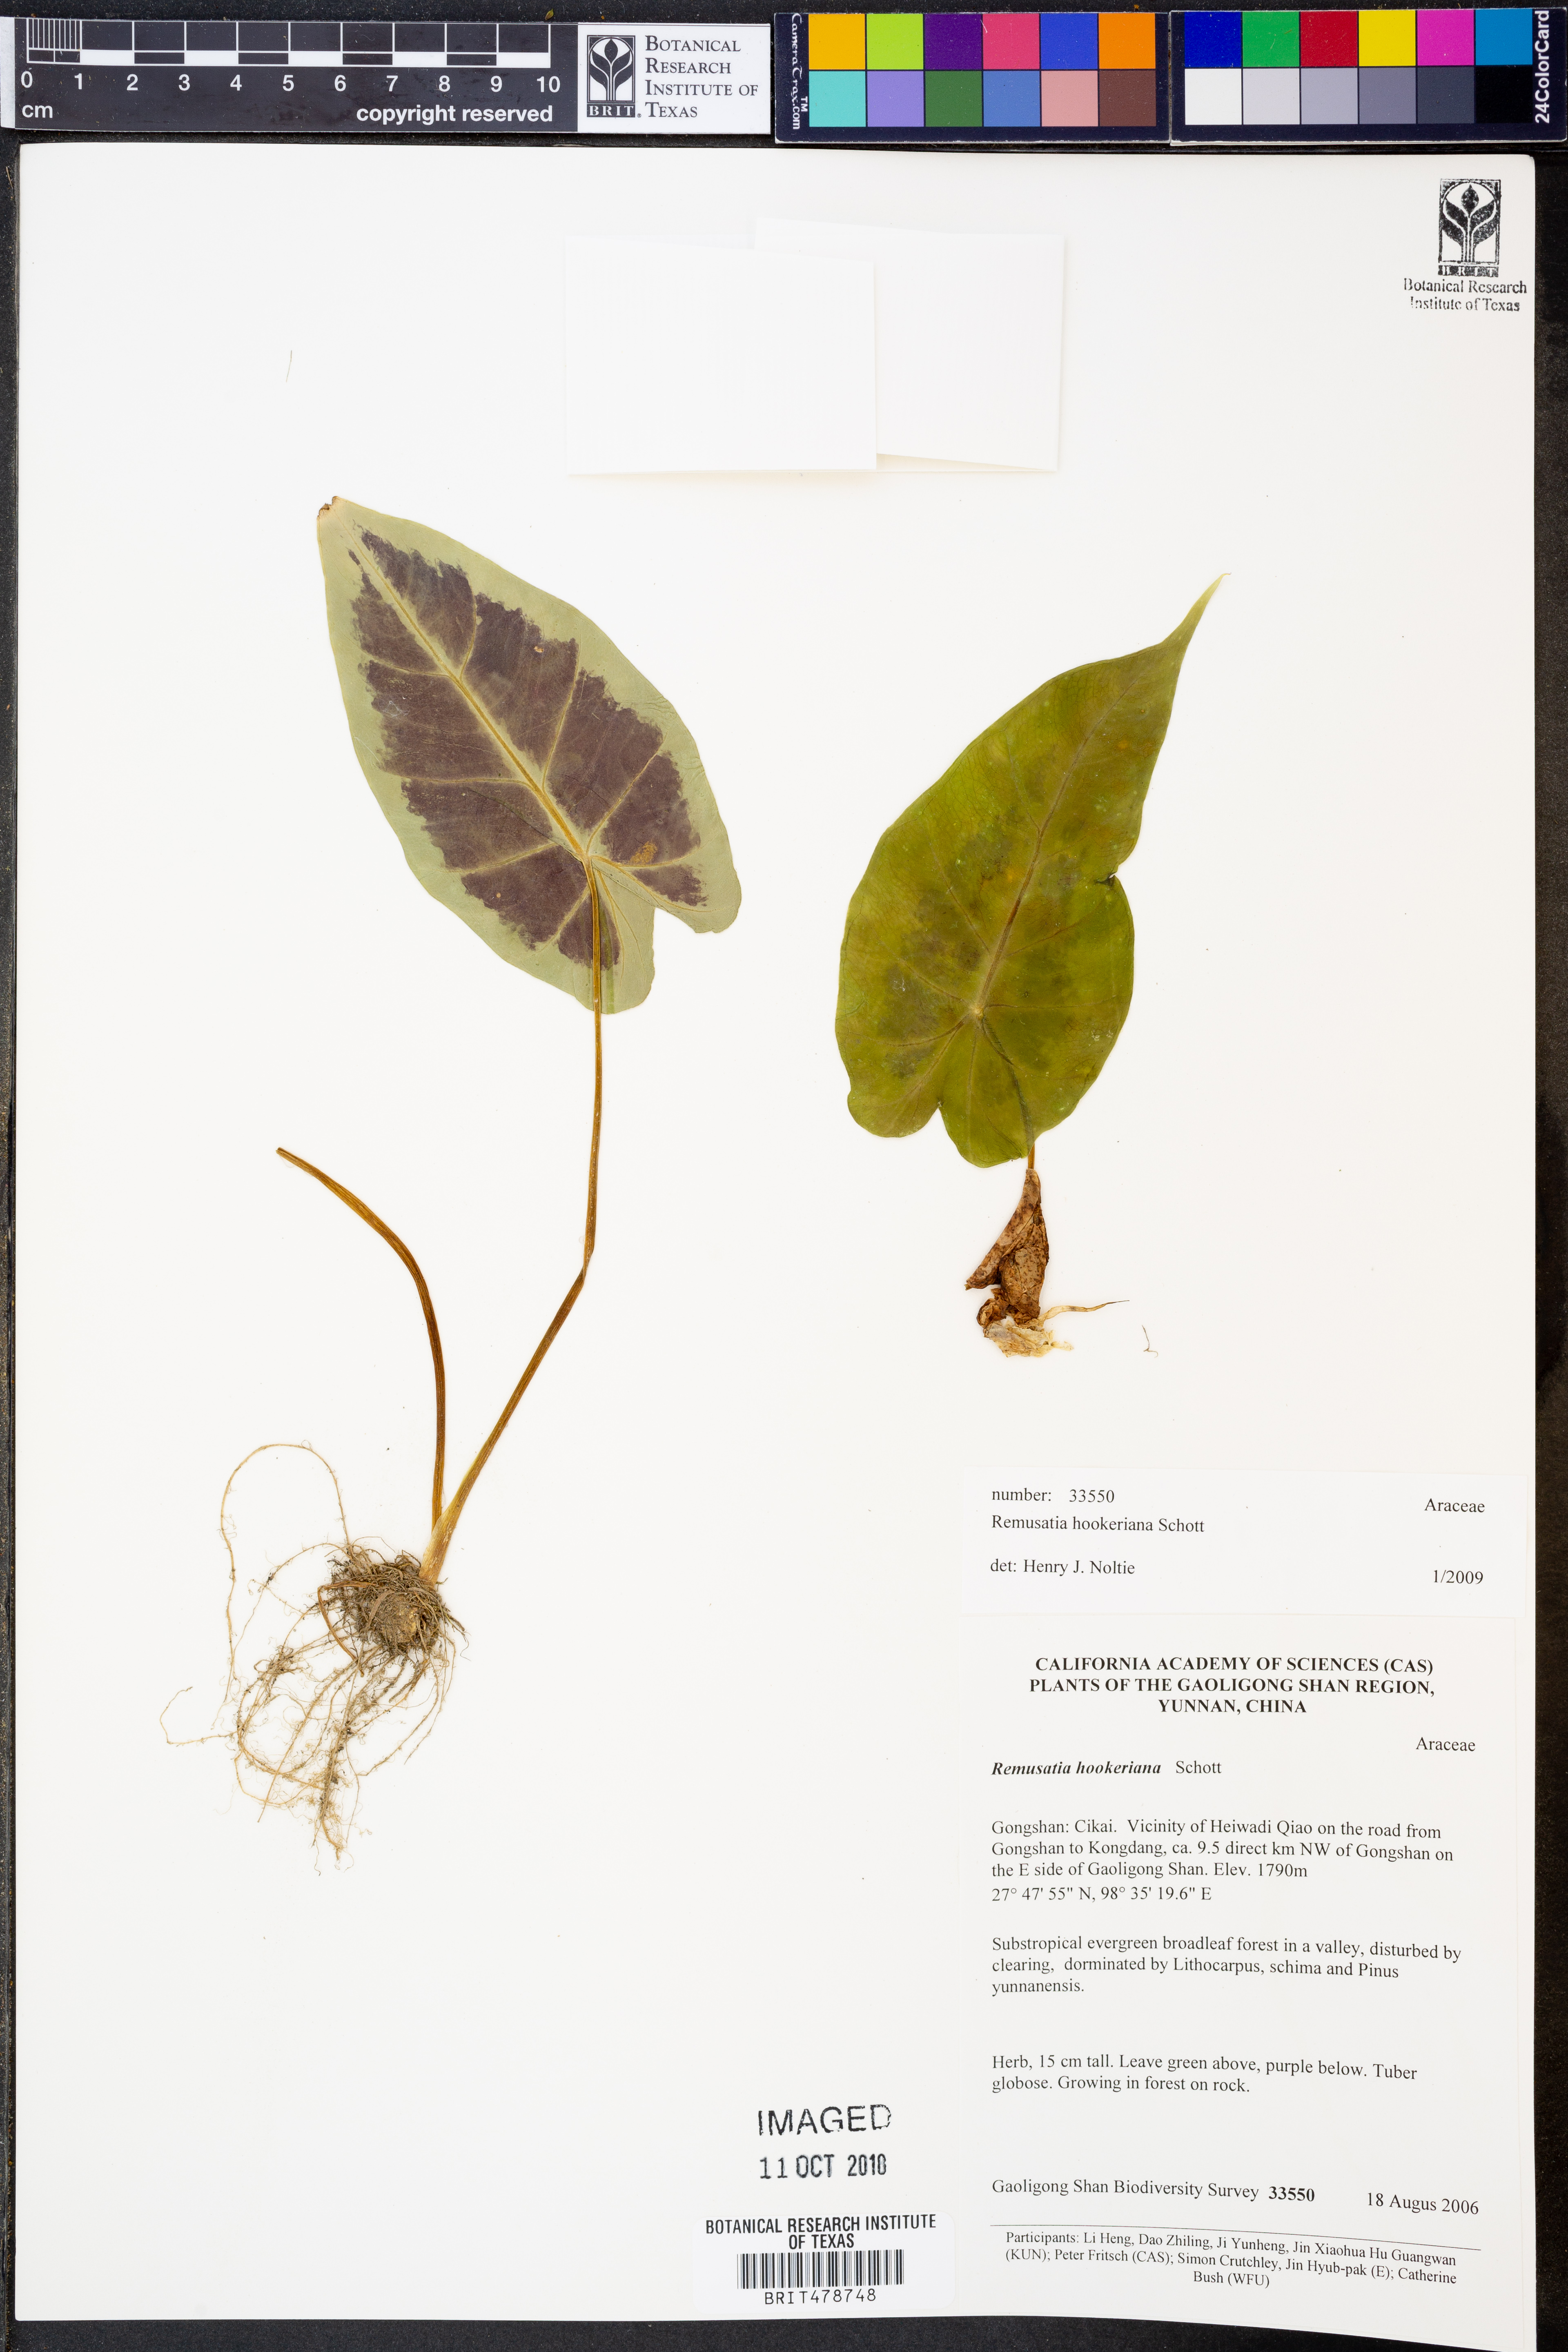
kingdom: Plantae
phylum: Tracheophyta
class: Liliopsida
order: Alismatales
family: Araceae
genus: Remusatia
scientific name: Remusatia hookeriana
